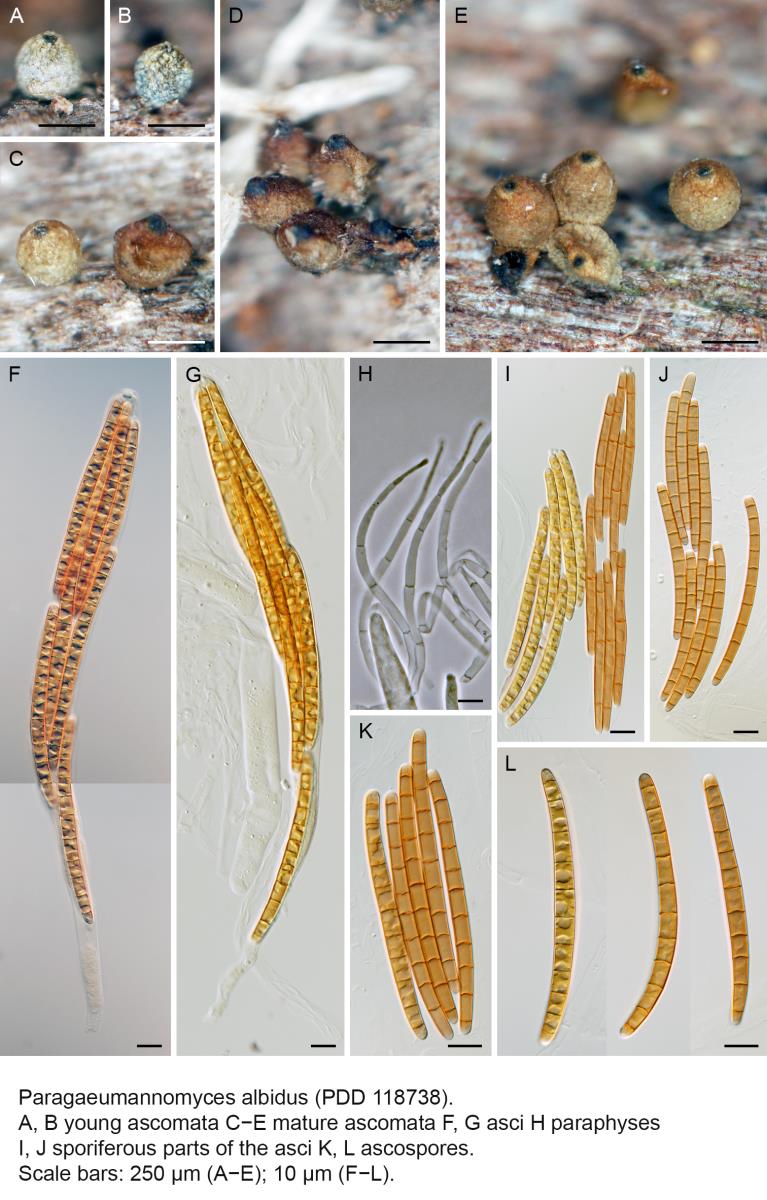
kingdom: Fungi
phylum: Ascomycota
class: Sordariomycetes
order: Chaetosphaeriales
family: Chaetosphaeriaceae
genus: Paragaeumannomyces
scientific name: Paragaeumannomyces albidus
